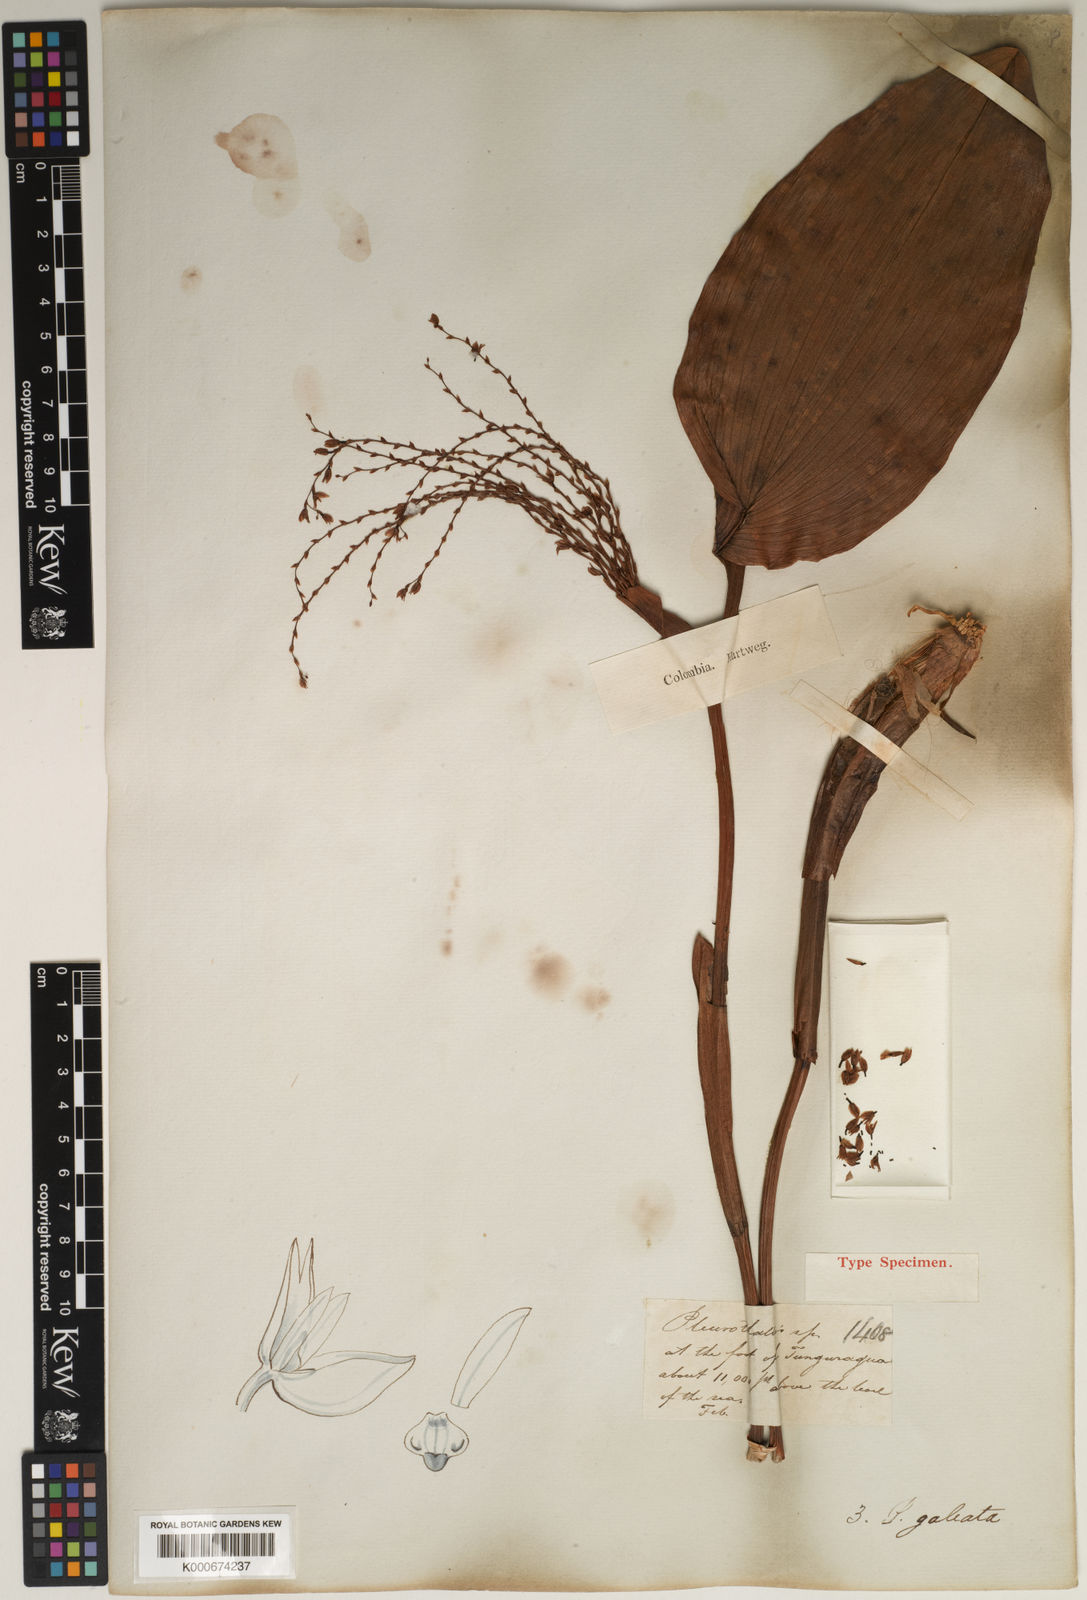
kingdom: Plantae
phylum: Tracheophyta
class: Liliopsida
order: Asparagales
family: Orchidaceae
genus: Stelis
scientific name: Stelis galeata
